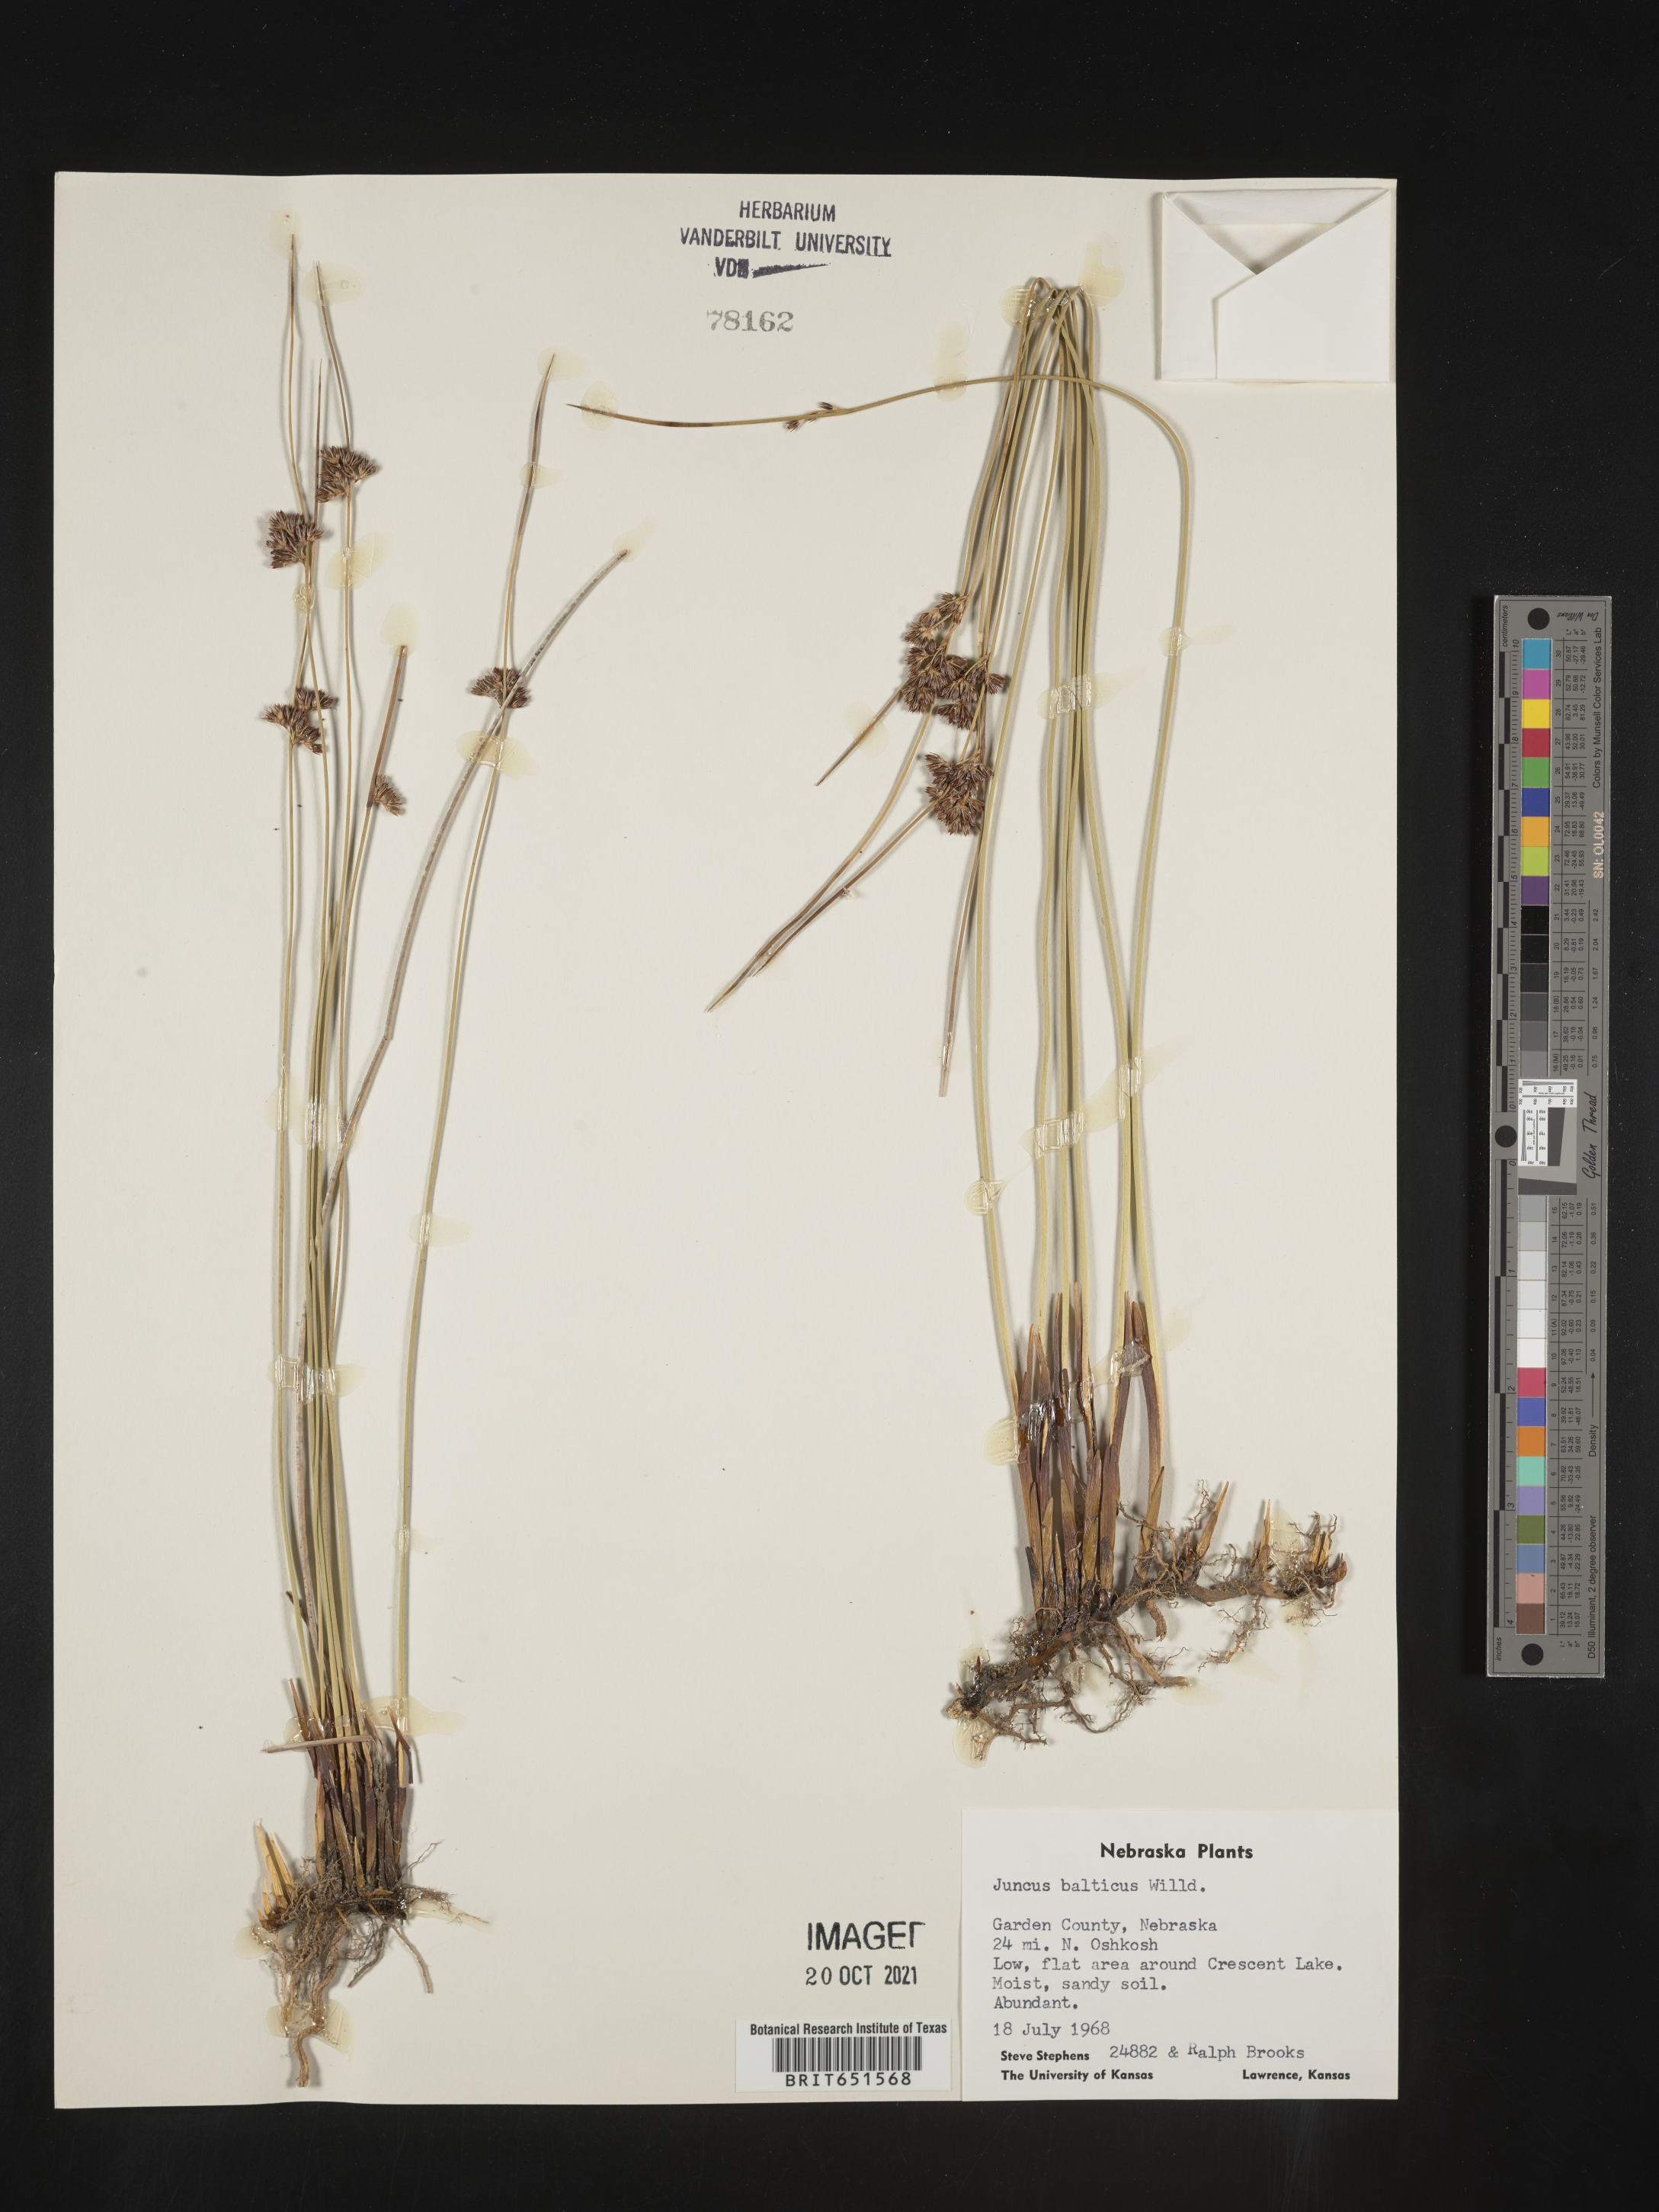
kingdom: Plantae
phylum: Tracheophyta
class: Liliopsida
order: Poales
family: Juncaceae
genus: Juncus
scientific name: Juncus balticus
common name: Baltic rush
